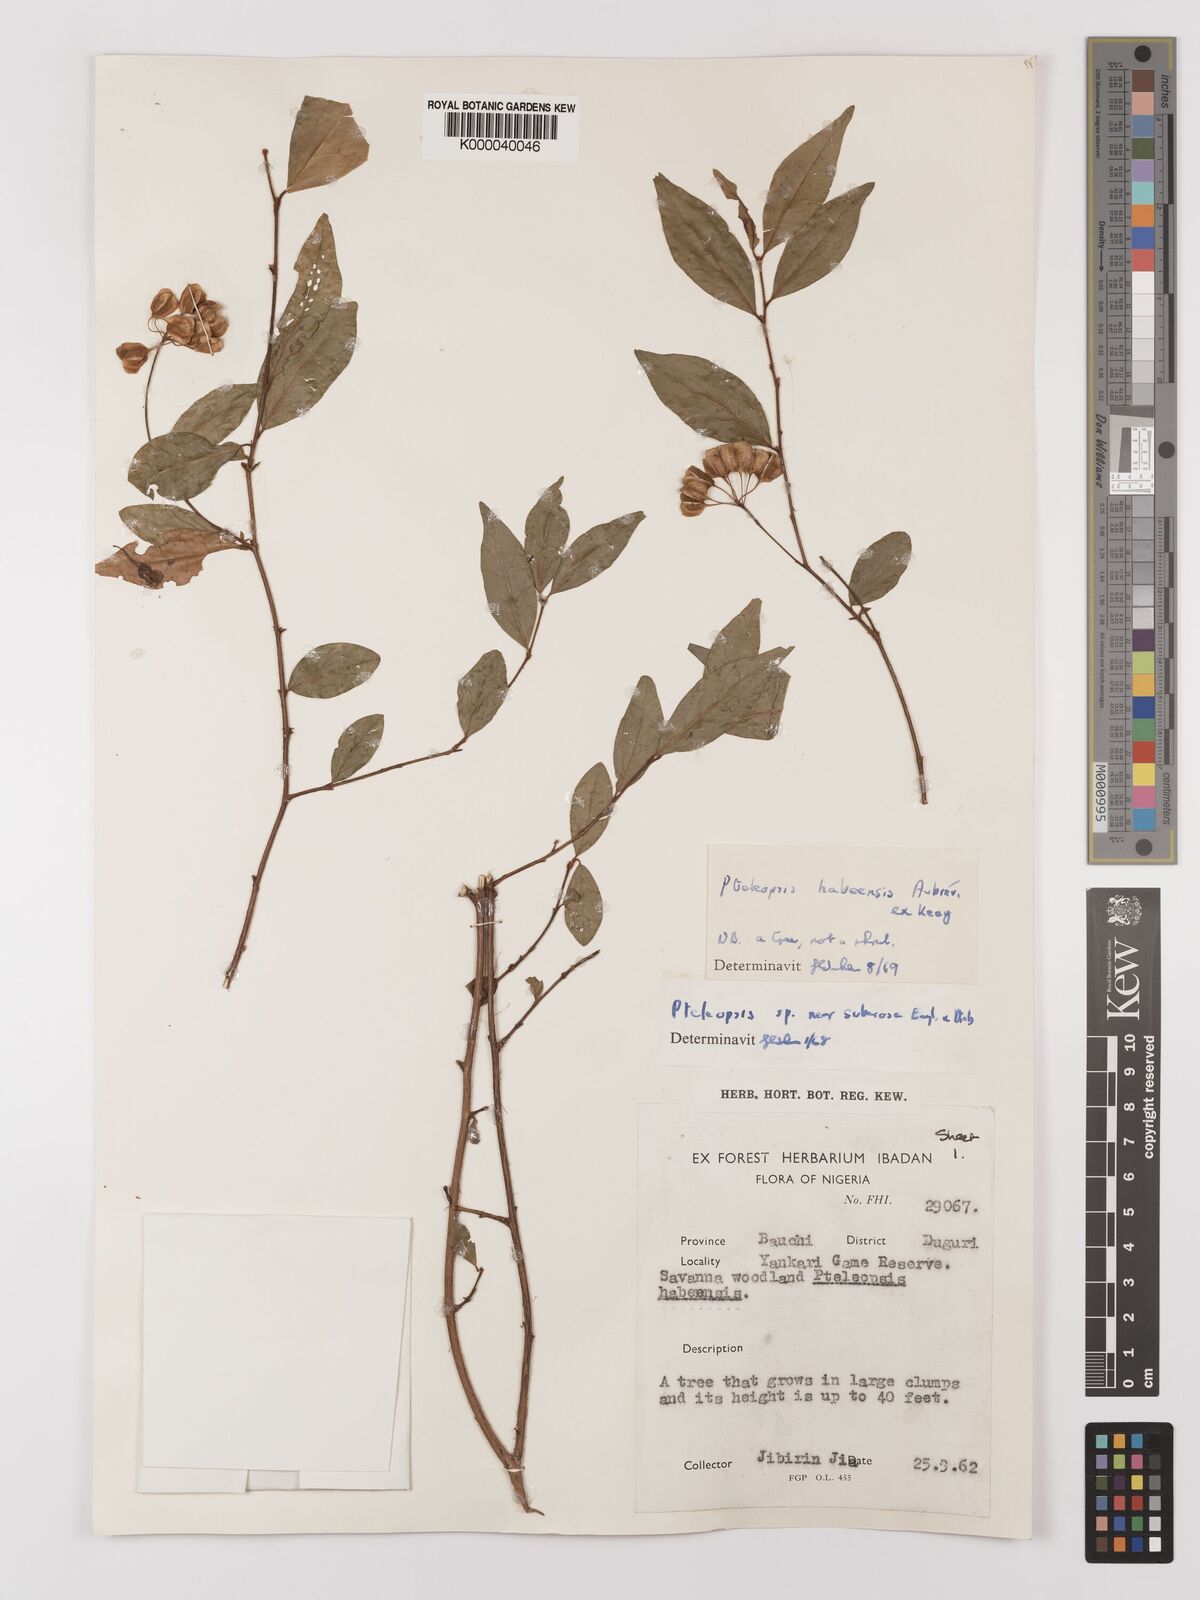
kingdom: Plantae
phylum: Tracheophyta
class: Magnoliopsida
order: Myrtales
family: Combretaceae
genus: Terminalia
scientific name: Terminalia
